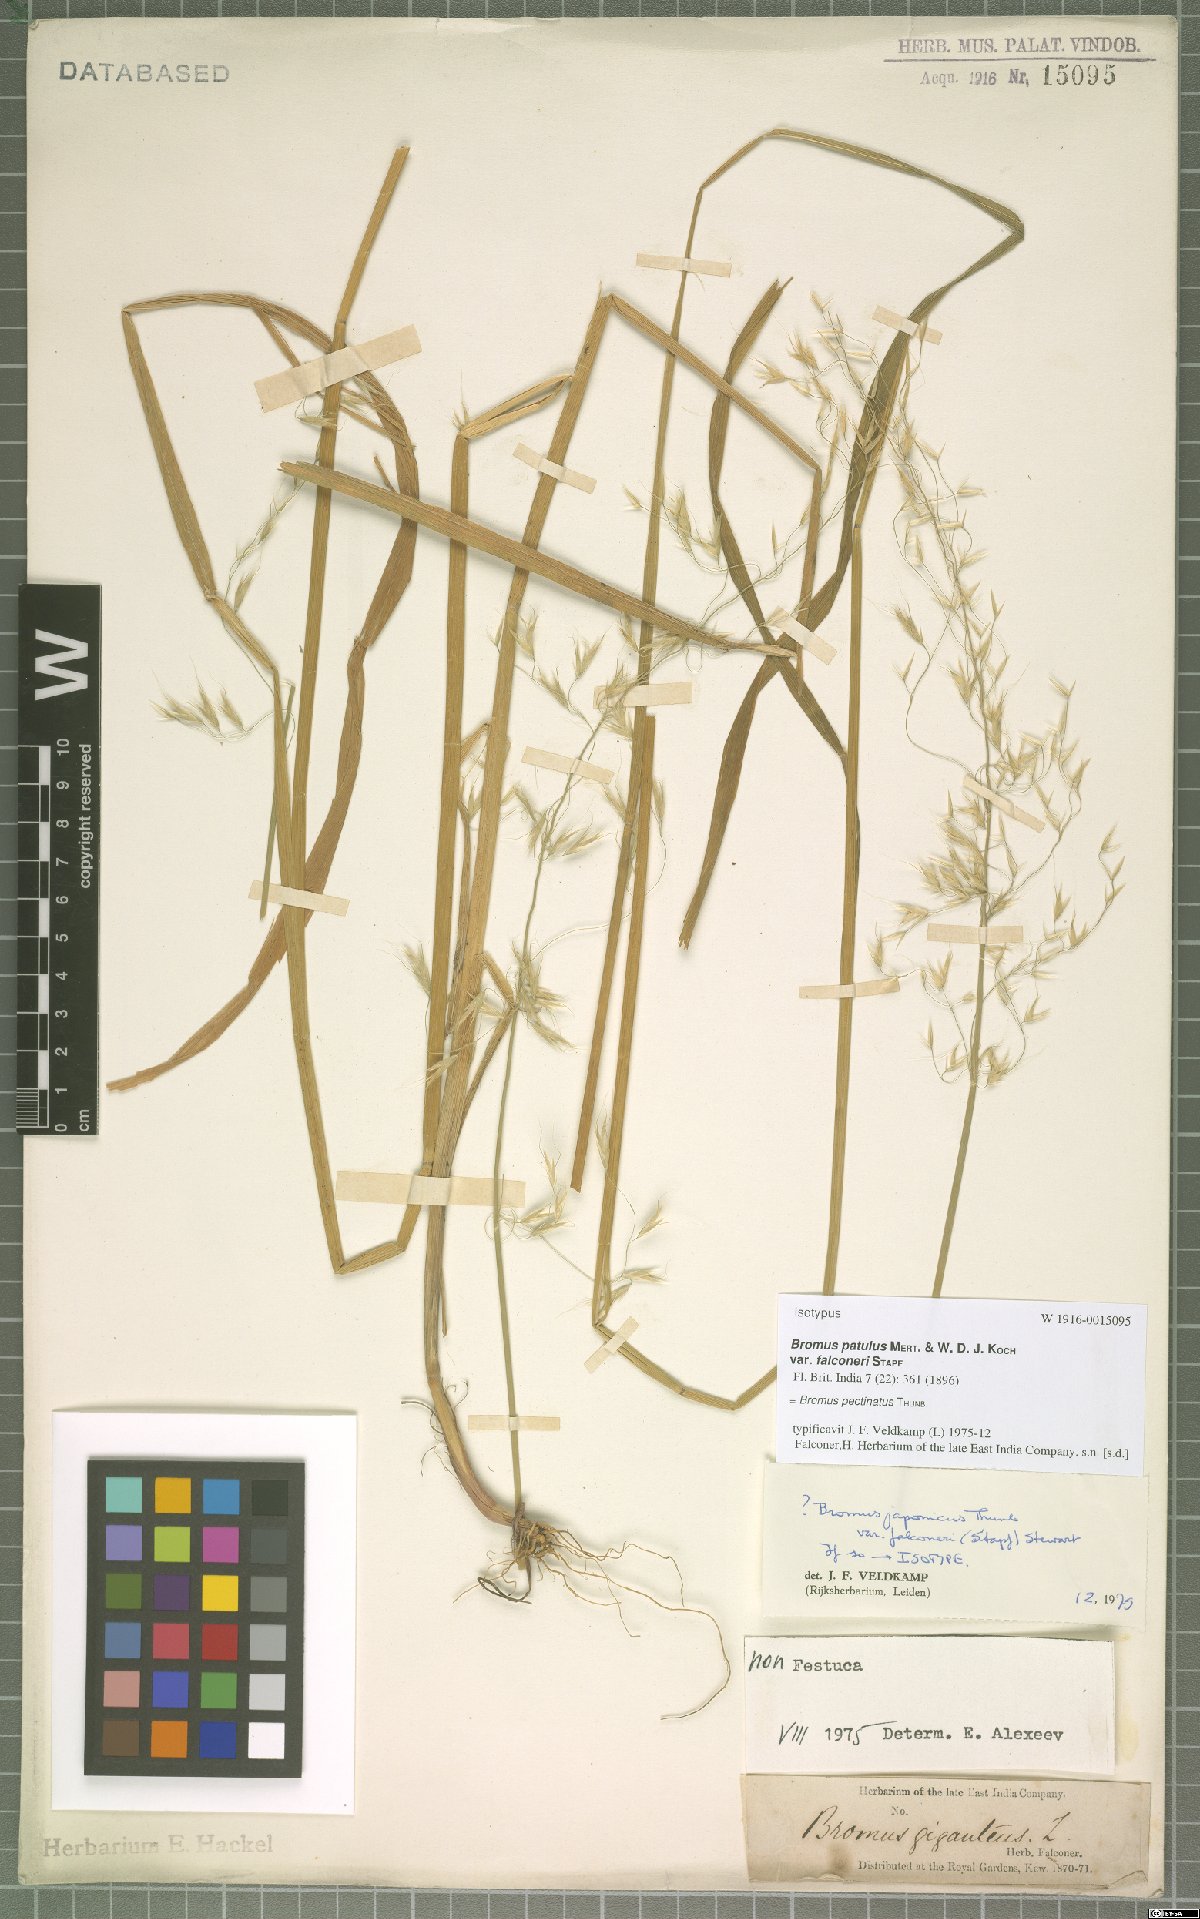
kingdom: Plantae
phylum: Tracheophyta
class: Liliopsida
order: Poales
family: Poaceae
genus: Bromus
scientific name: Bromus pectinatus
